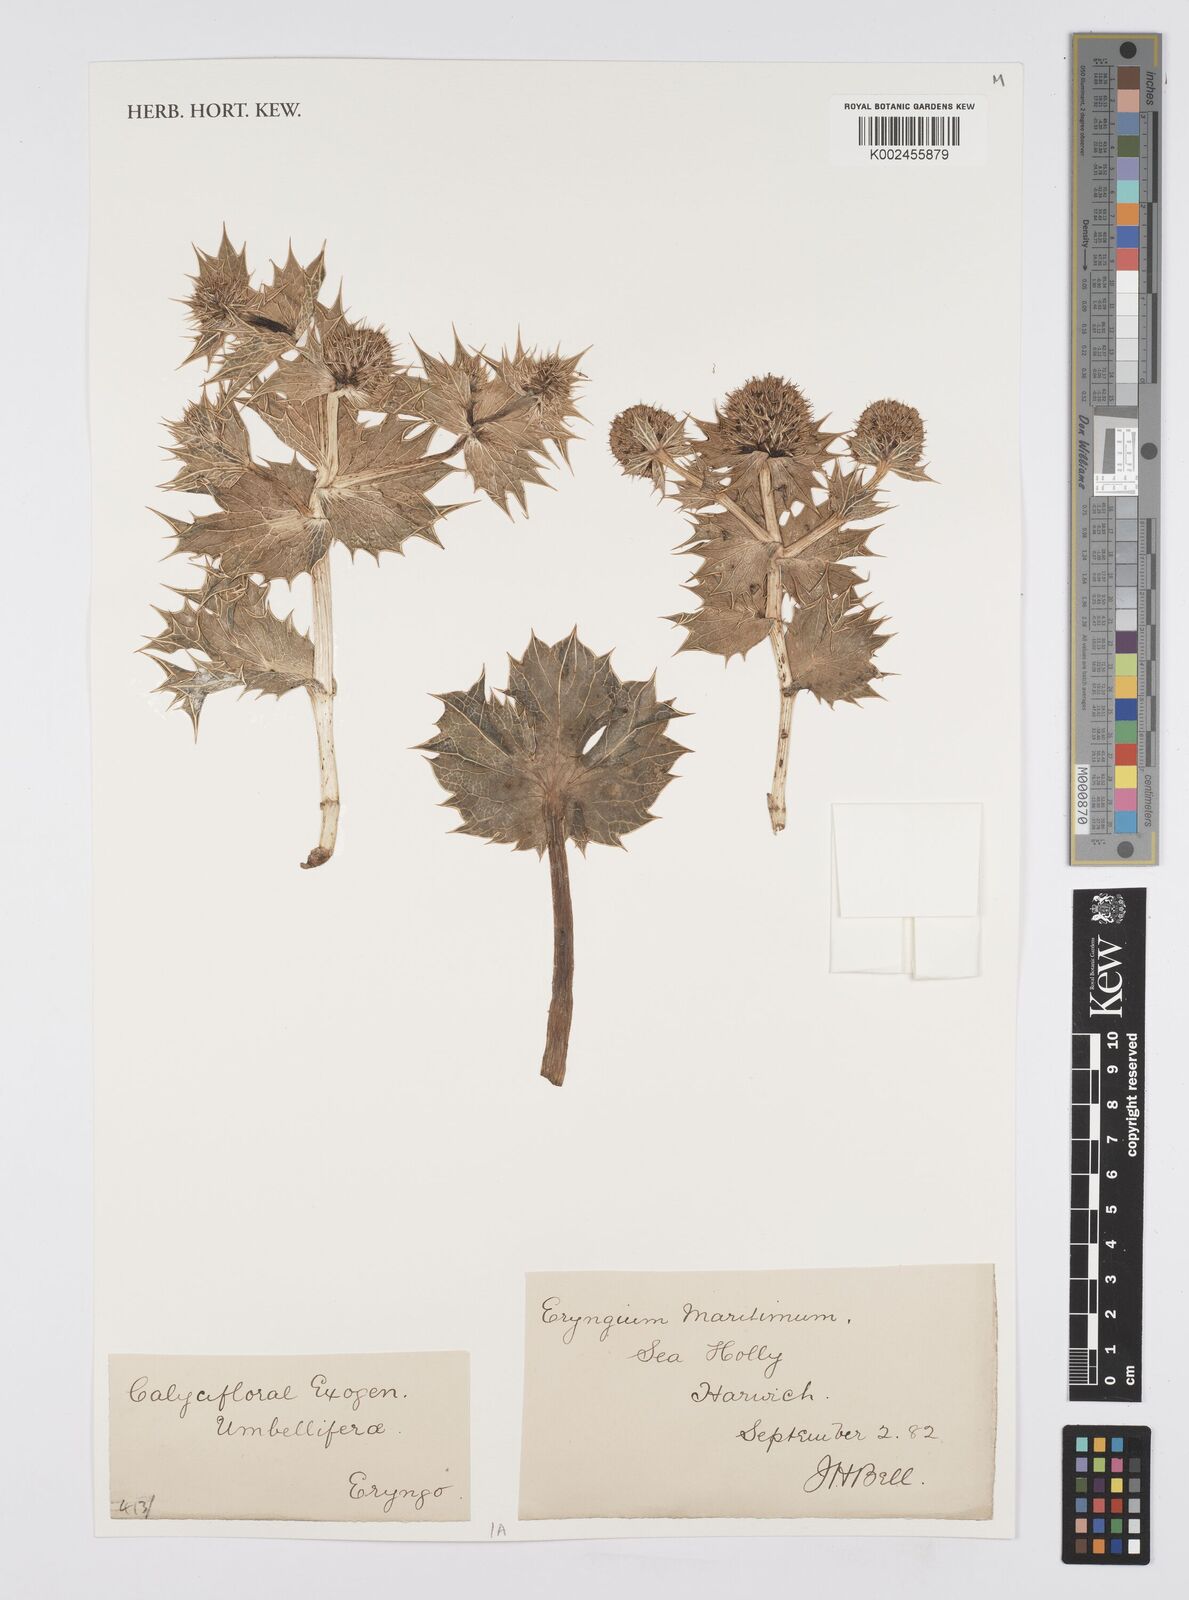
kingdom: Plantae
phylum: Tracheophyta
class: Magnoliopsida
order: Apiales
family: Apiaceae
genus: Eryngium
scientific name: Eryngium maritimum
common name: Sea-holly
